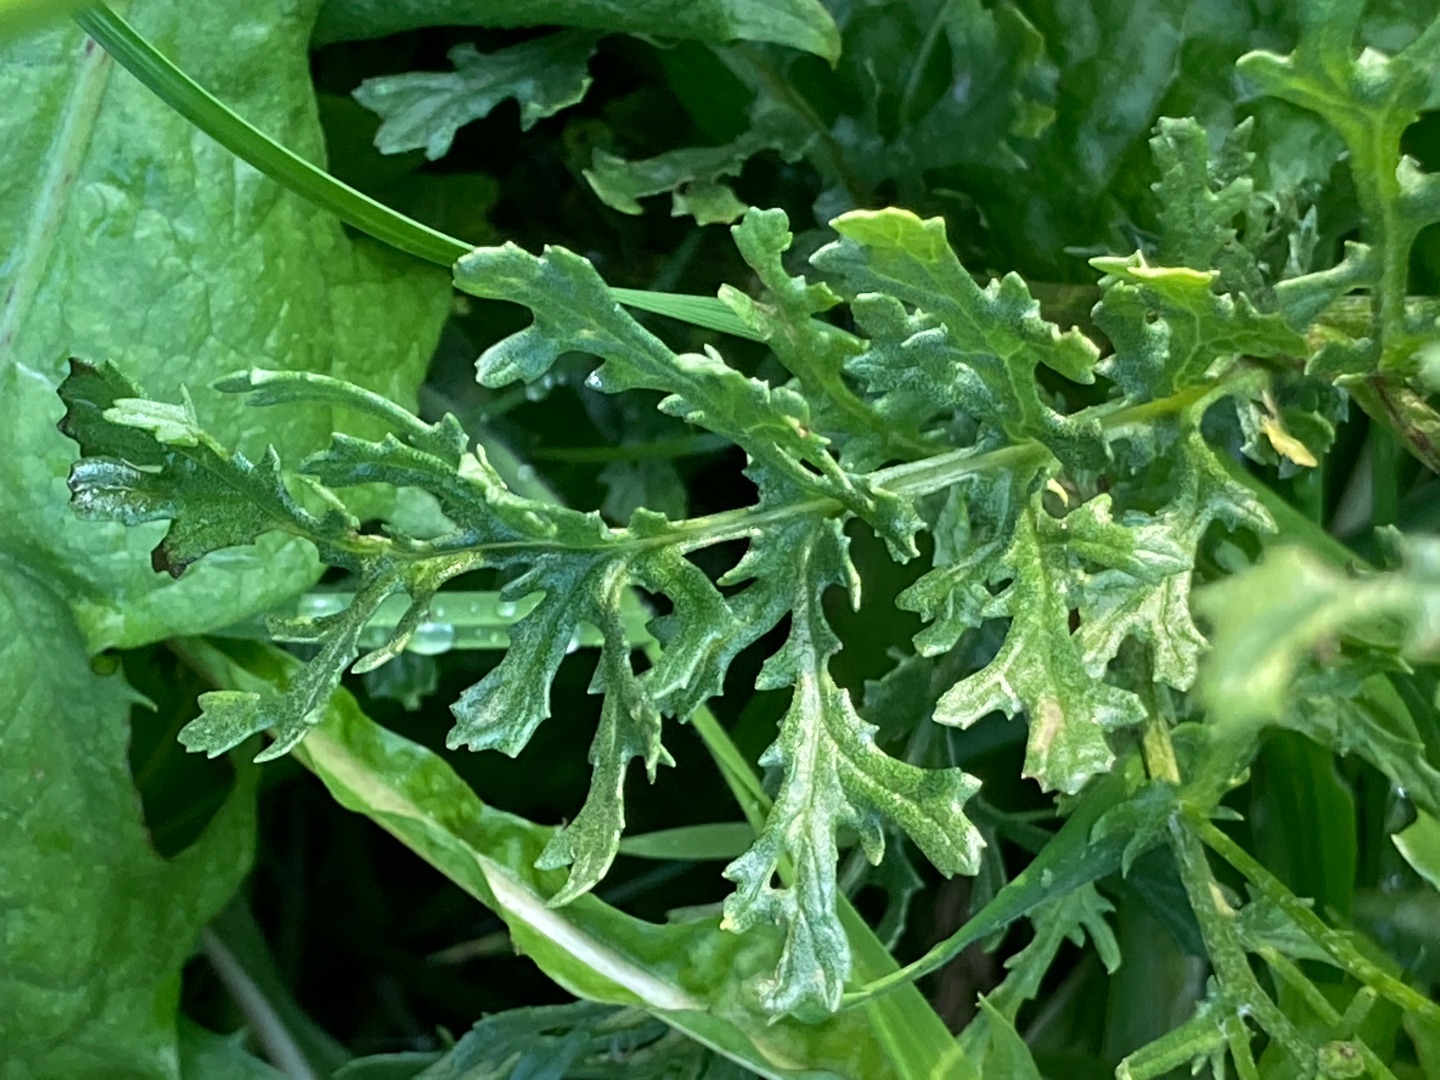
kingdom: Plantae
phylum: Tracheophyta
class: Magnoliopsida
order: Asterales
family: Asteraceae
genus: Jacobaea
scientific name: Jacobaea vulgaris
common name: Eng-brandbæger
